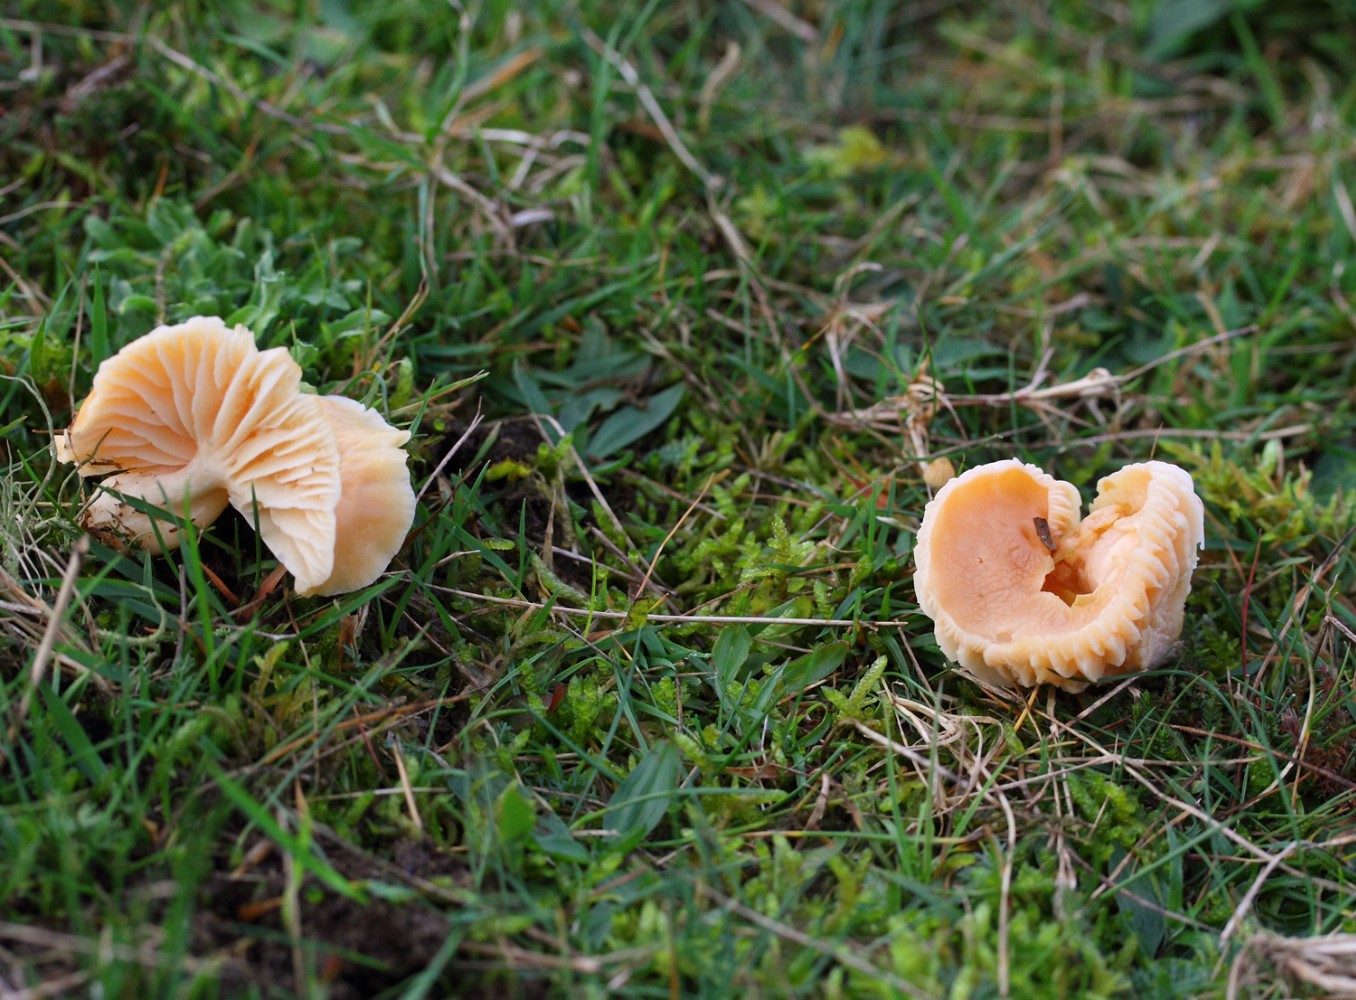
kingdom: Fungi
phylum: Basidiomycota
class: Agaricomycetes
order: Agaricales
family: Hygrophoraceae
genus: Cuphophyllus
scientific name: Cuphophyllus pratensis
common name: eng-vokshat
